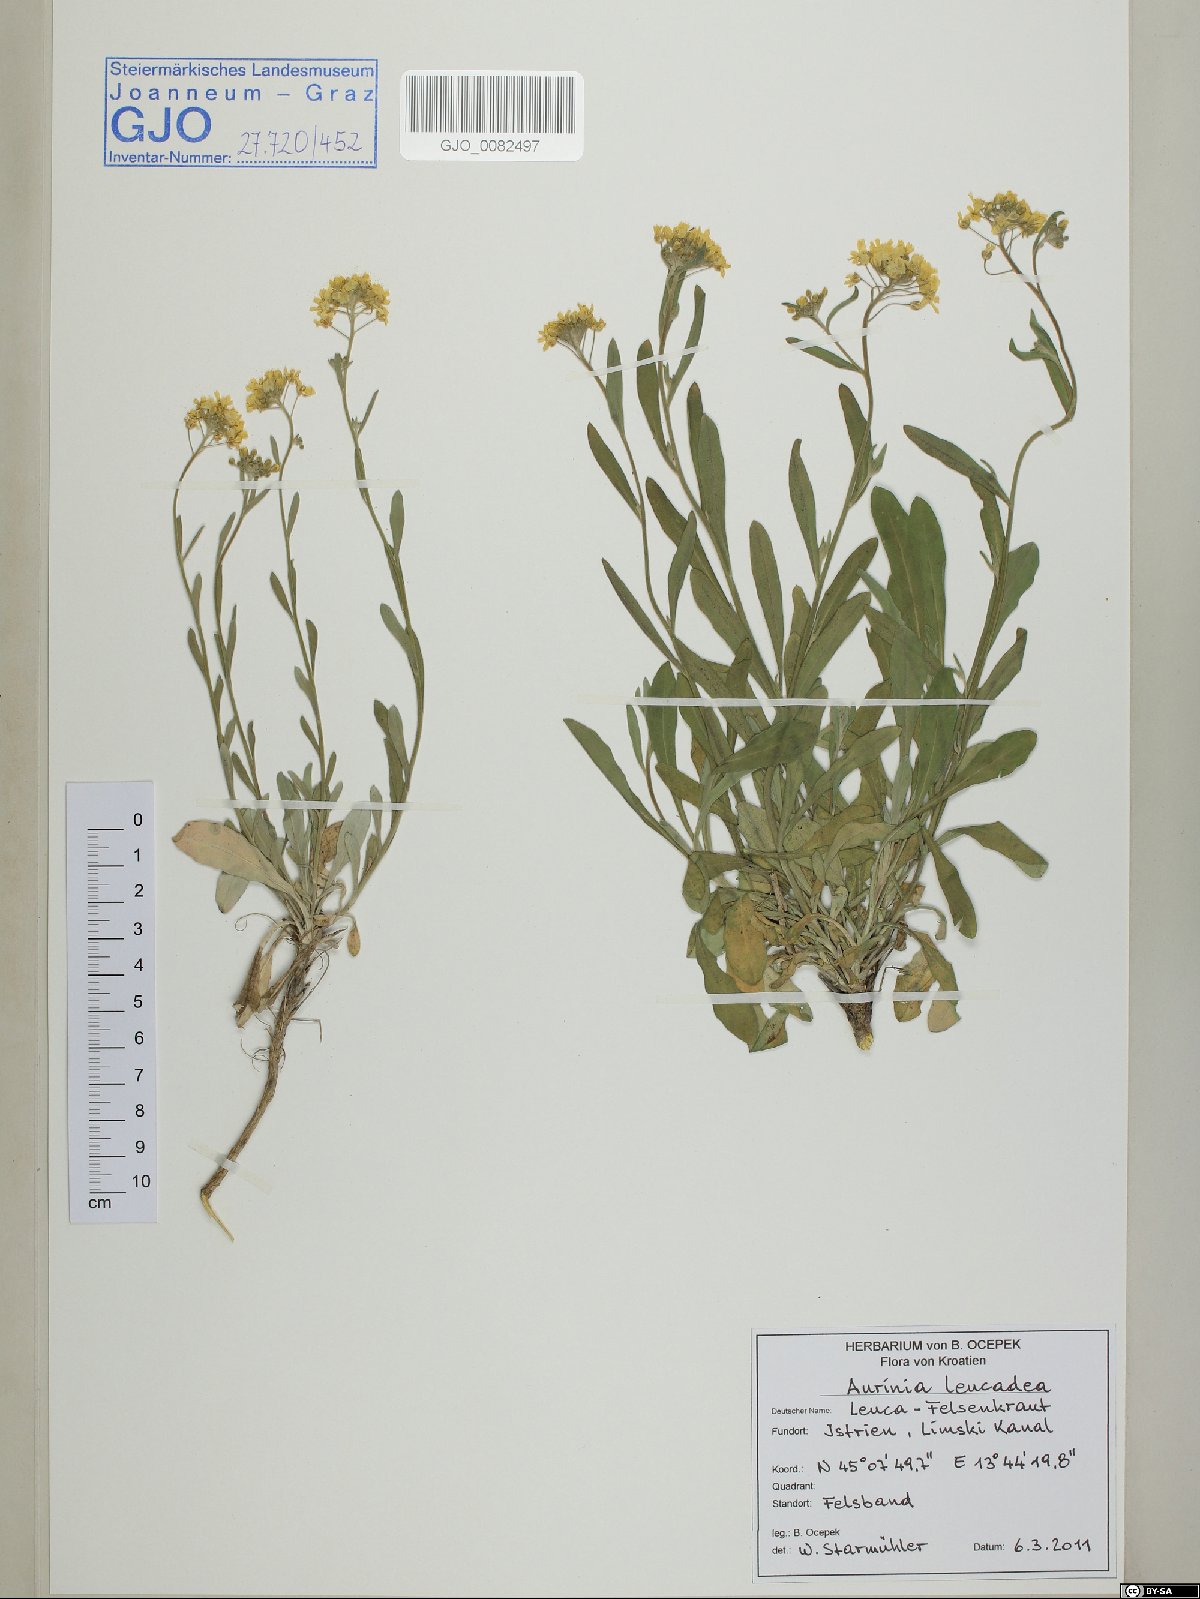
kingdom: Plantae
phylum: Tracheophyta
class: Magnoliopsida
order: Brassicales
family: Brassicaceae
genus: Aurinia
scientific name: Aurinia leucadea
